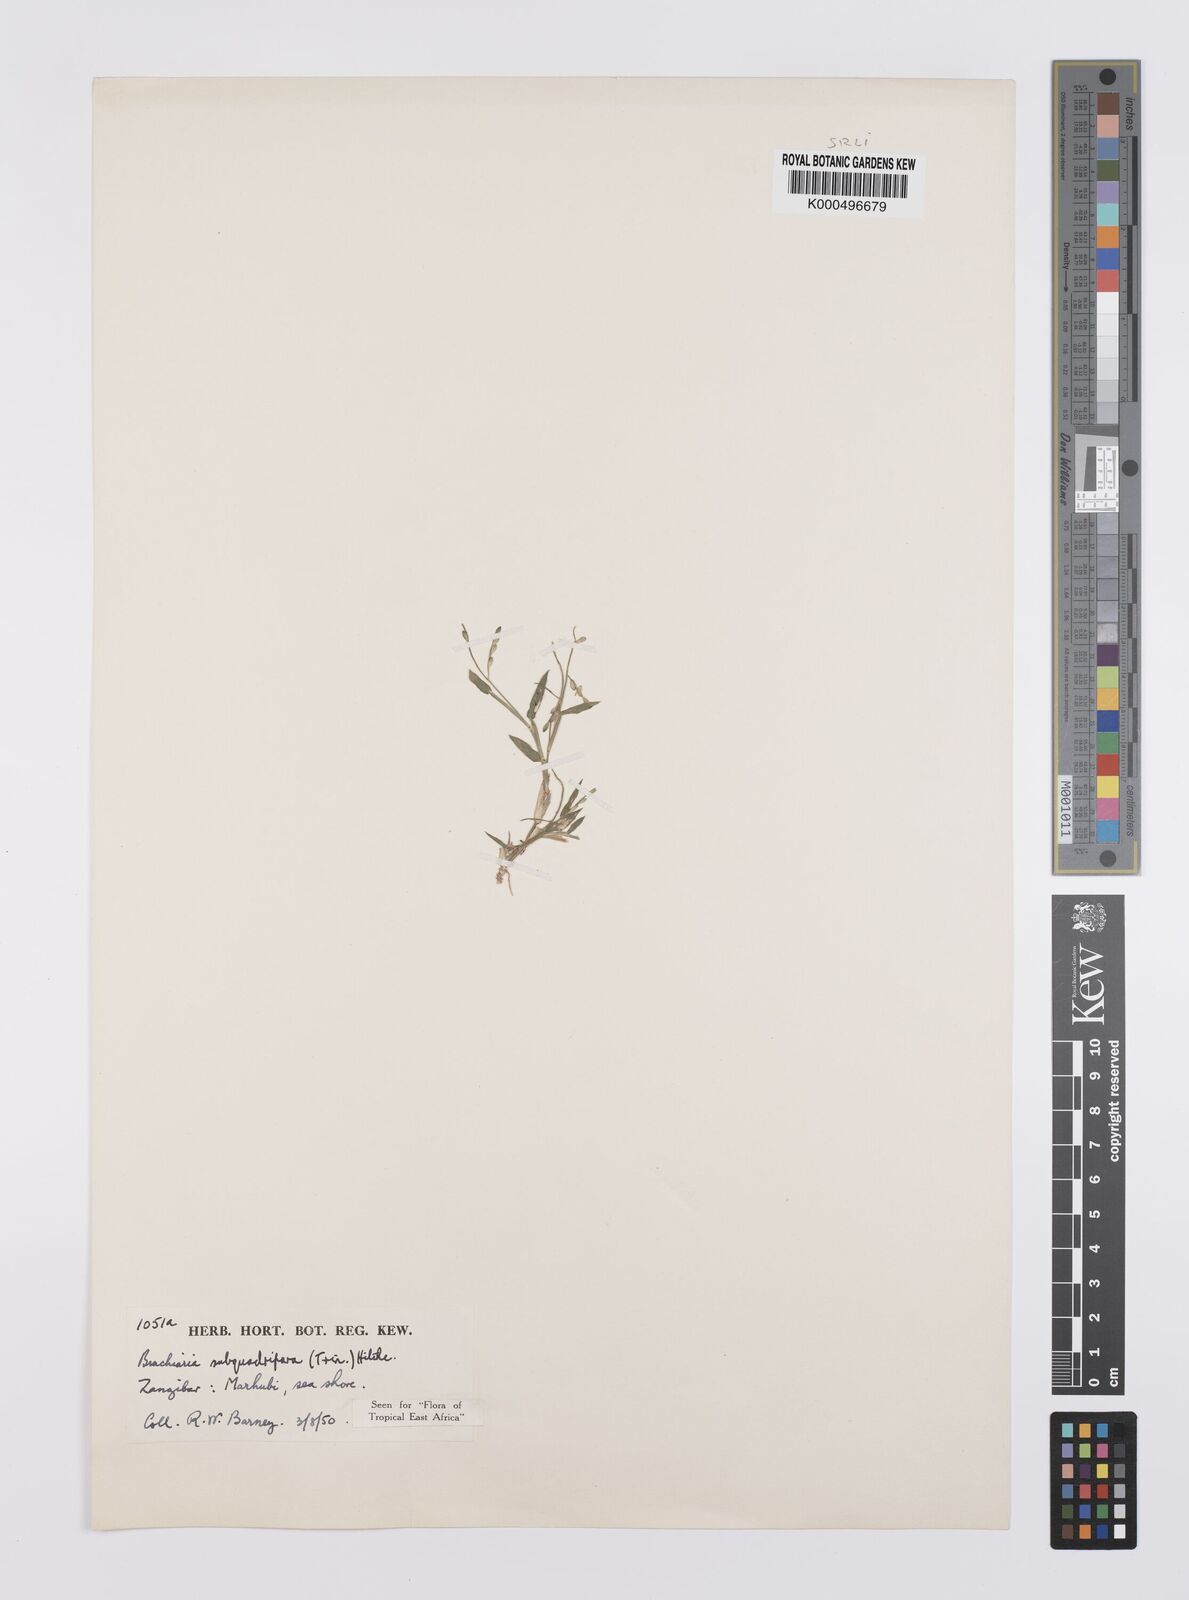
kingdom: Plantae
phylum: Tracheophyta
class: Liliopsida
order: Poales
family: Poaceae
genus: Urochloa
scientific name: Urochloa subquadripara
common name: Armgrass millet
